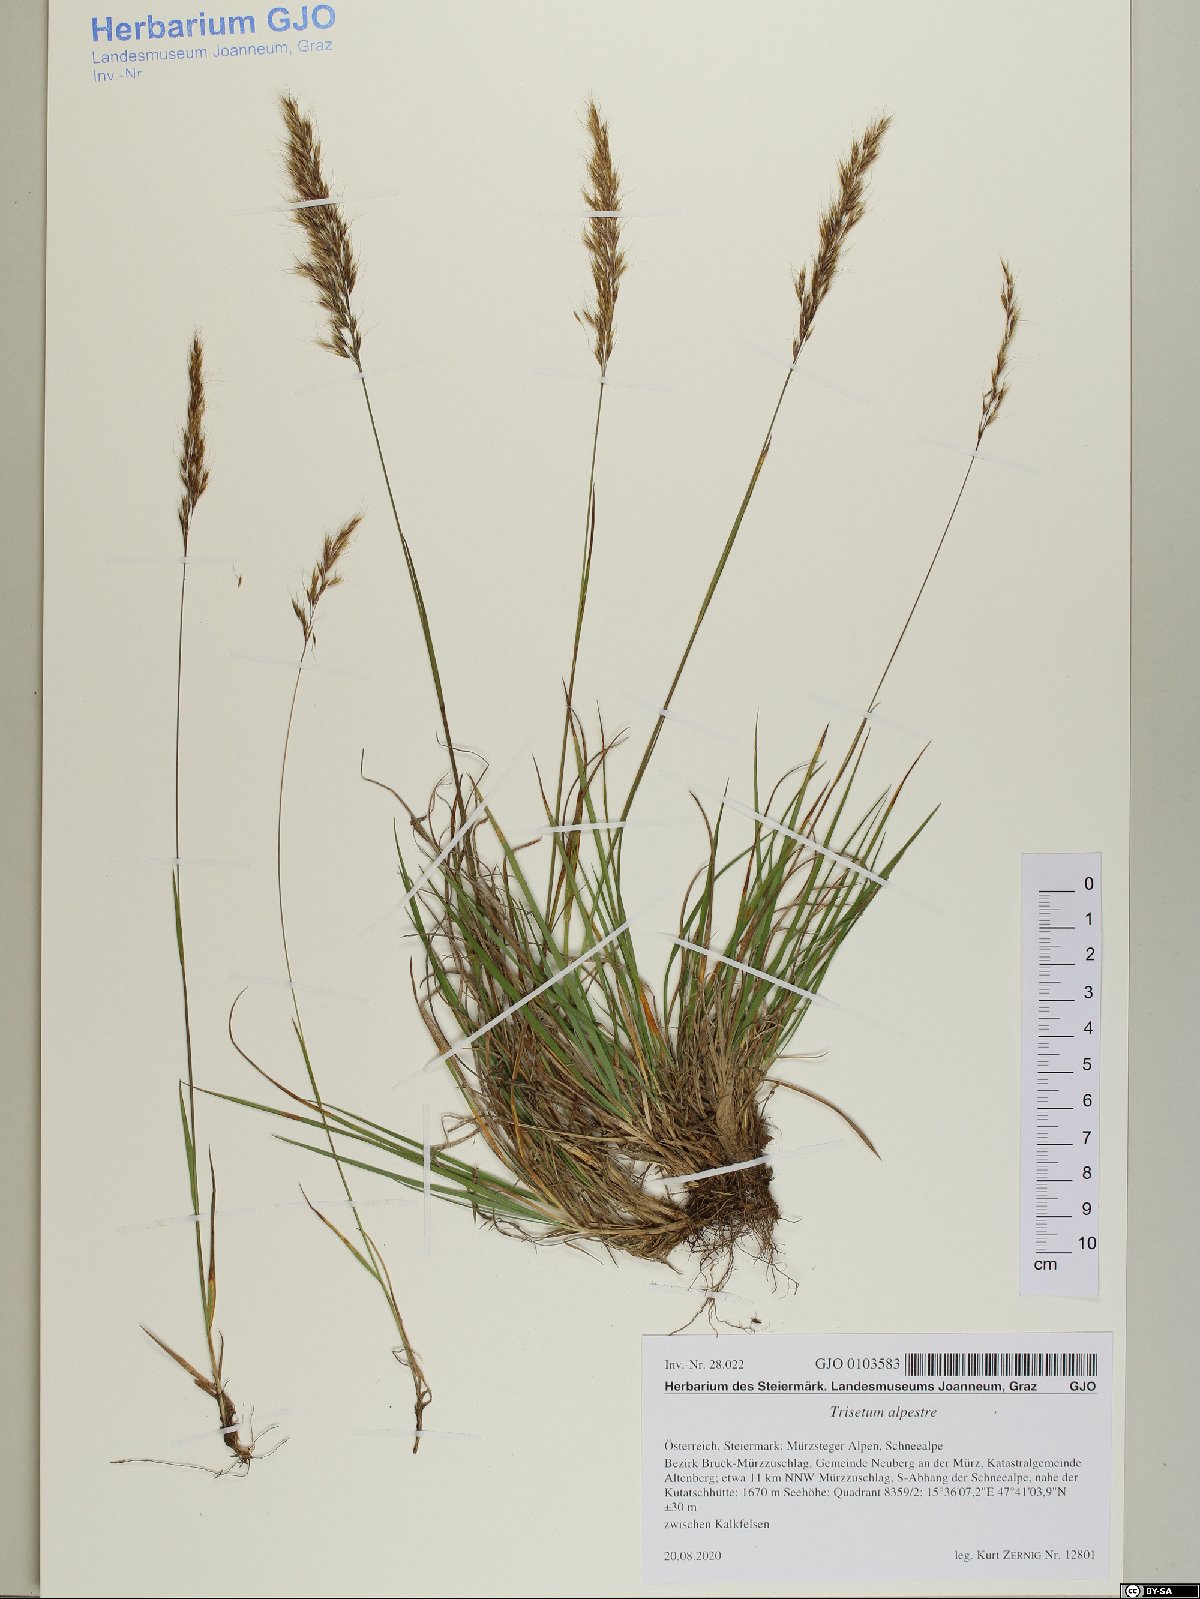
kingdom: Plantae
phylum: Tracheophyta
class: Liliopsida
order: Poales
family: Poaceae
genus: Trisetum
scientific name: Trisetum alpestre
